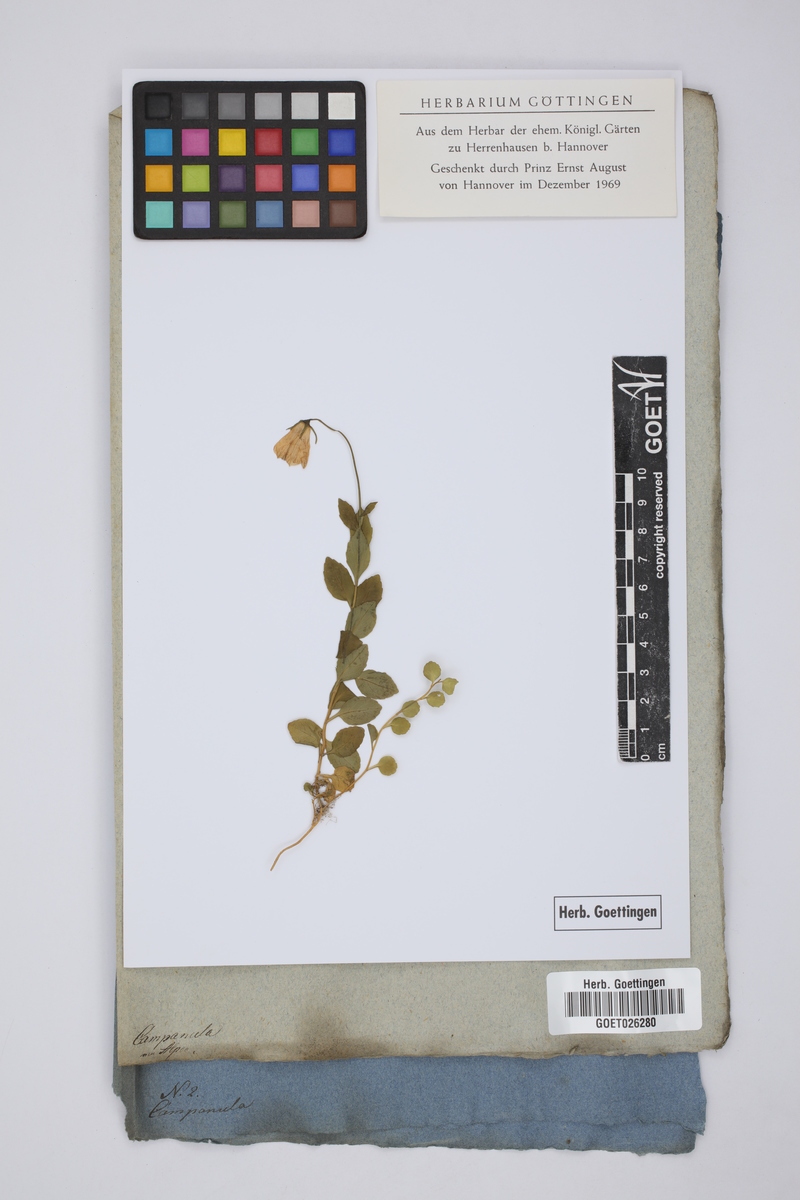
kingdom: Plantae
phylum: Tracheophyta
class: Magnoliopsida
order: Asterales
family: Campanulaceae
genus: Campanula
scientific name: Campanula
